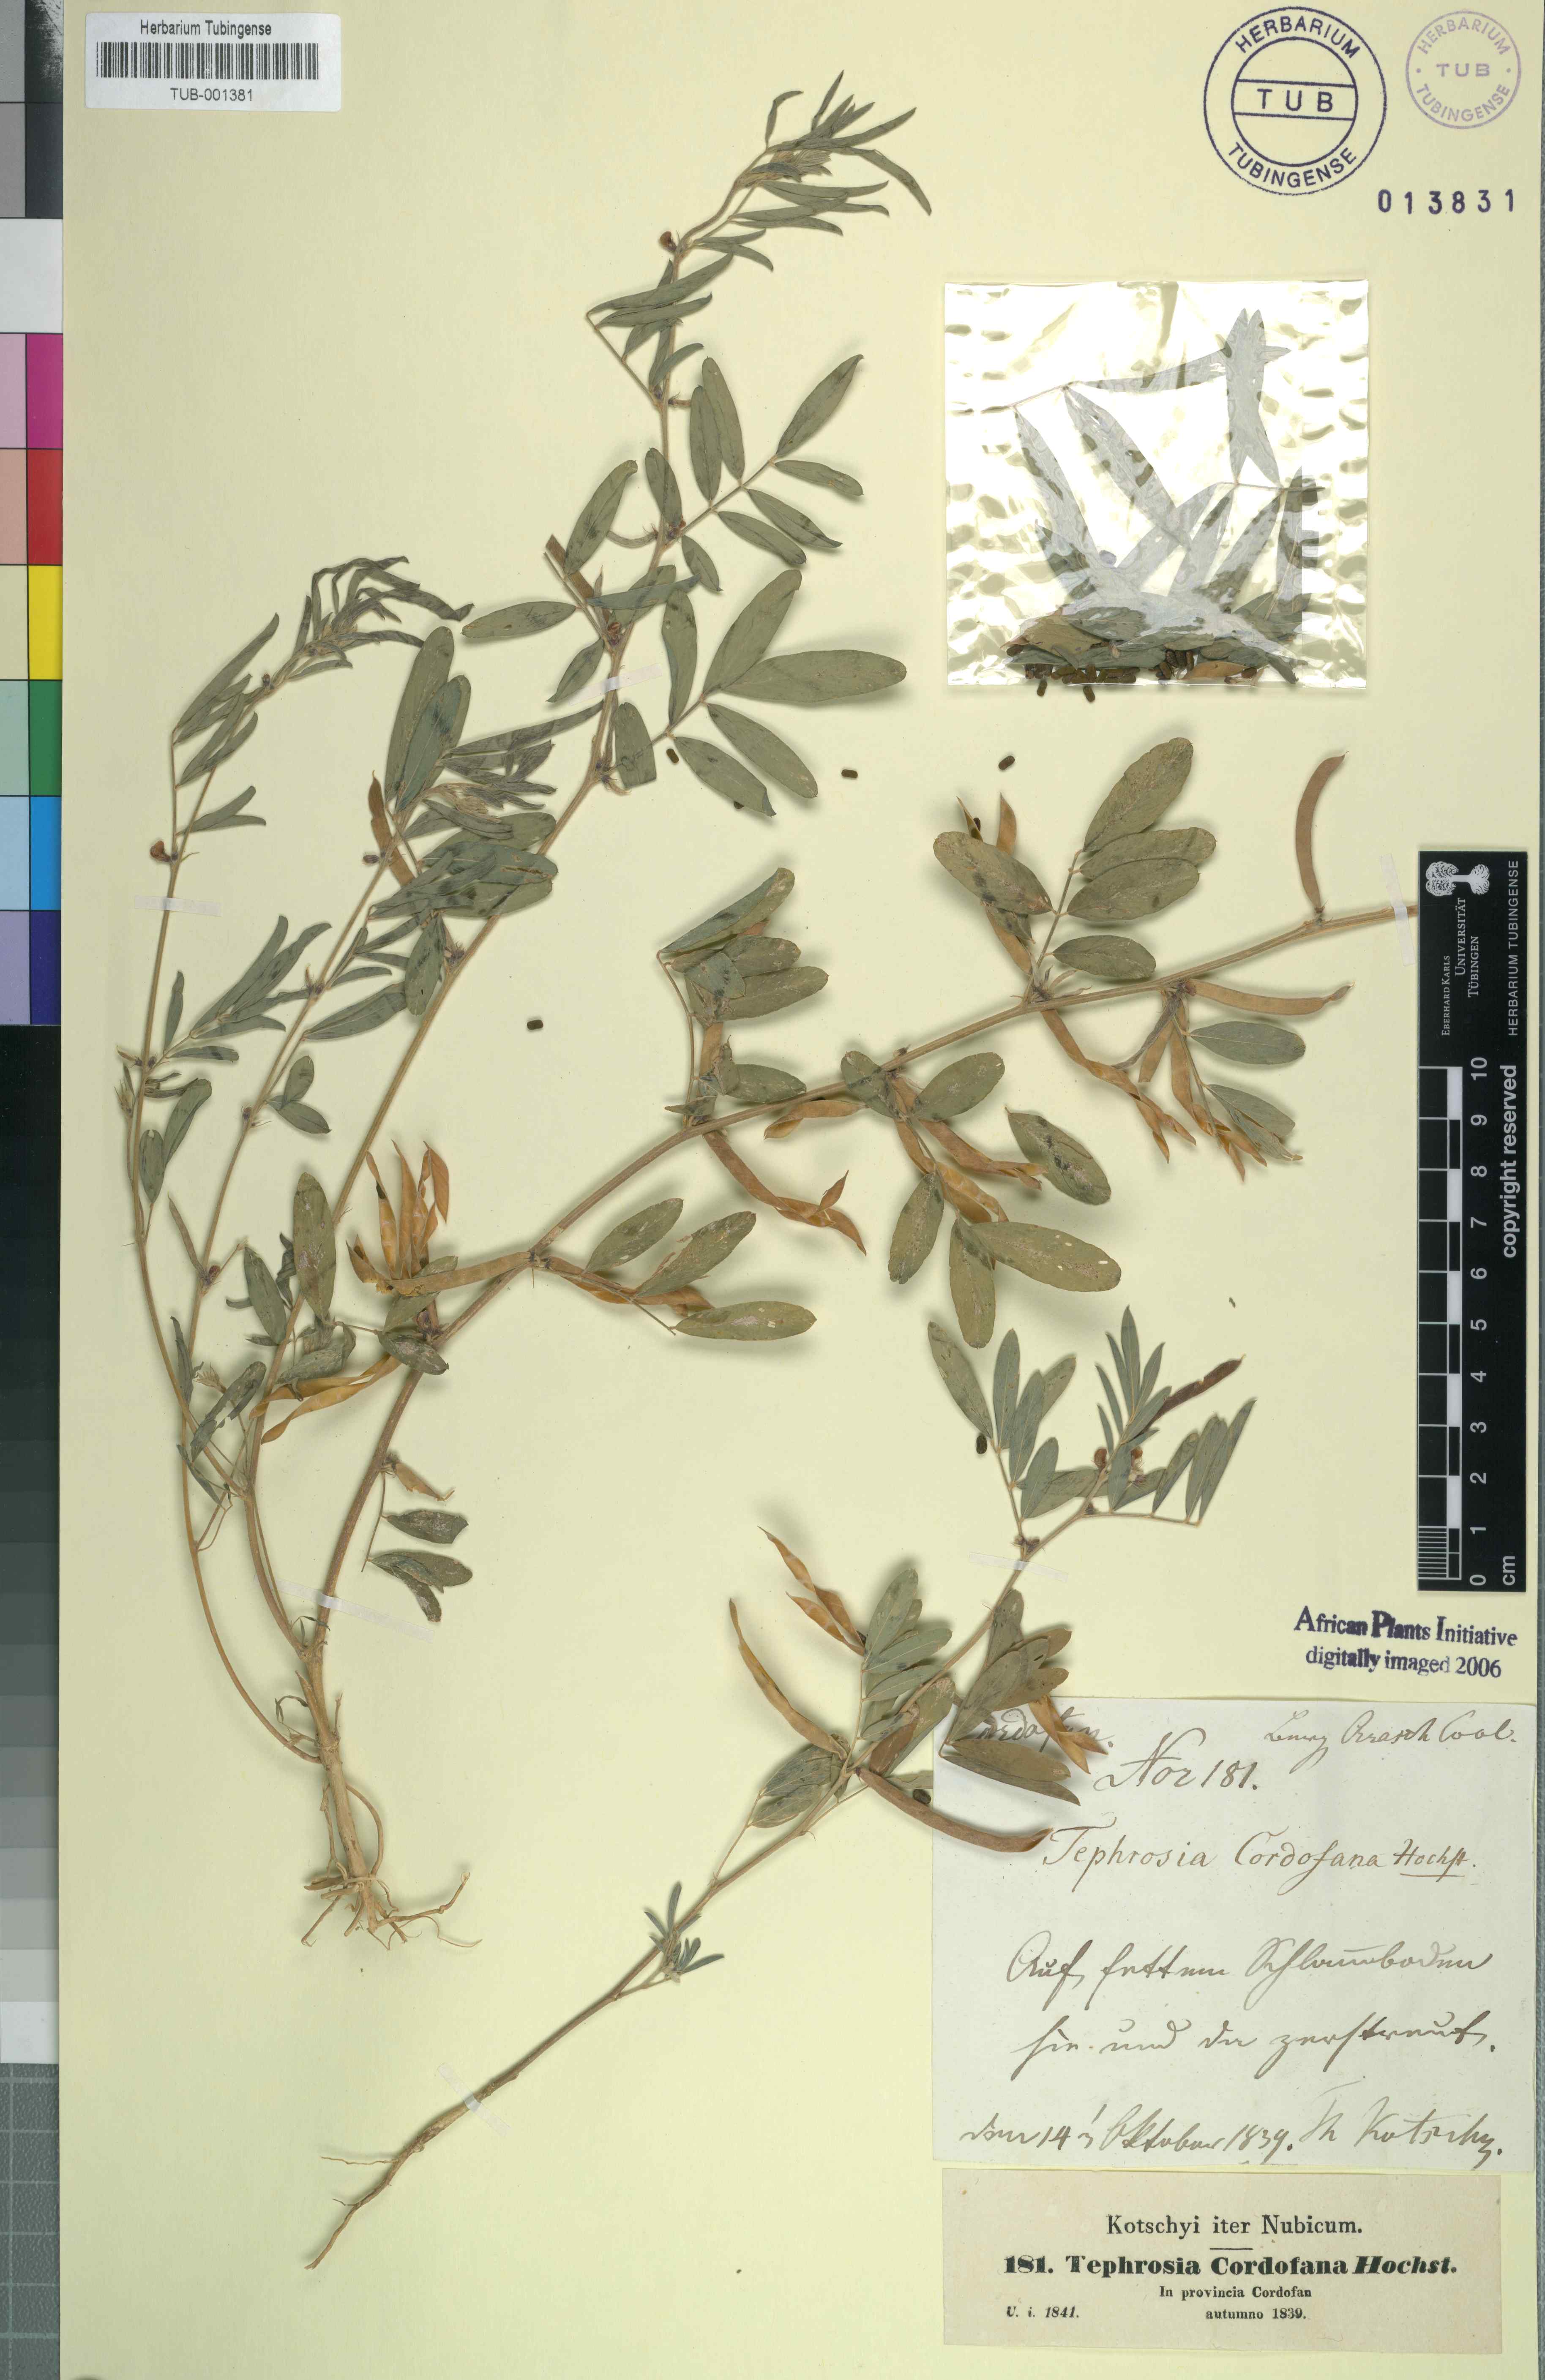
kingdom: Plantae
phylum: Tracheophyta
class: Magnoliopsida
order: Fabales
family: Fabaceae
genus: Tephrosia
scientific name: Tephrosia uniflora
